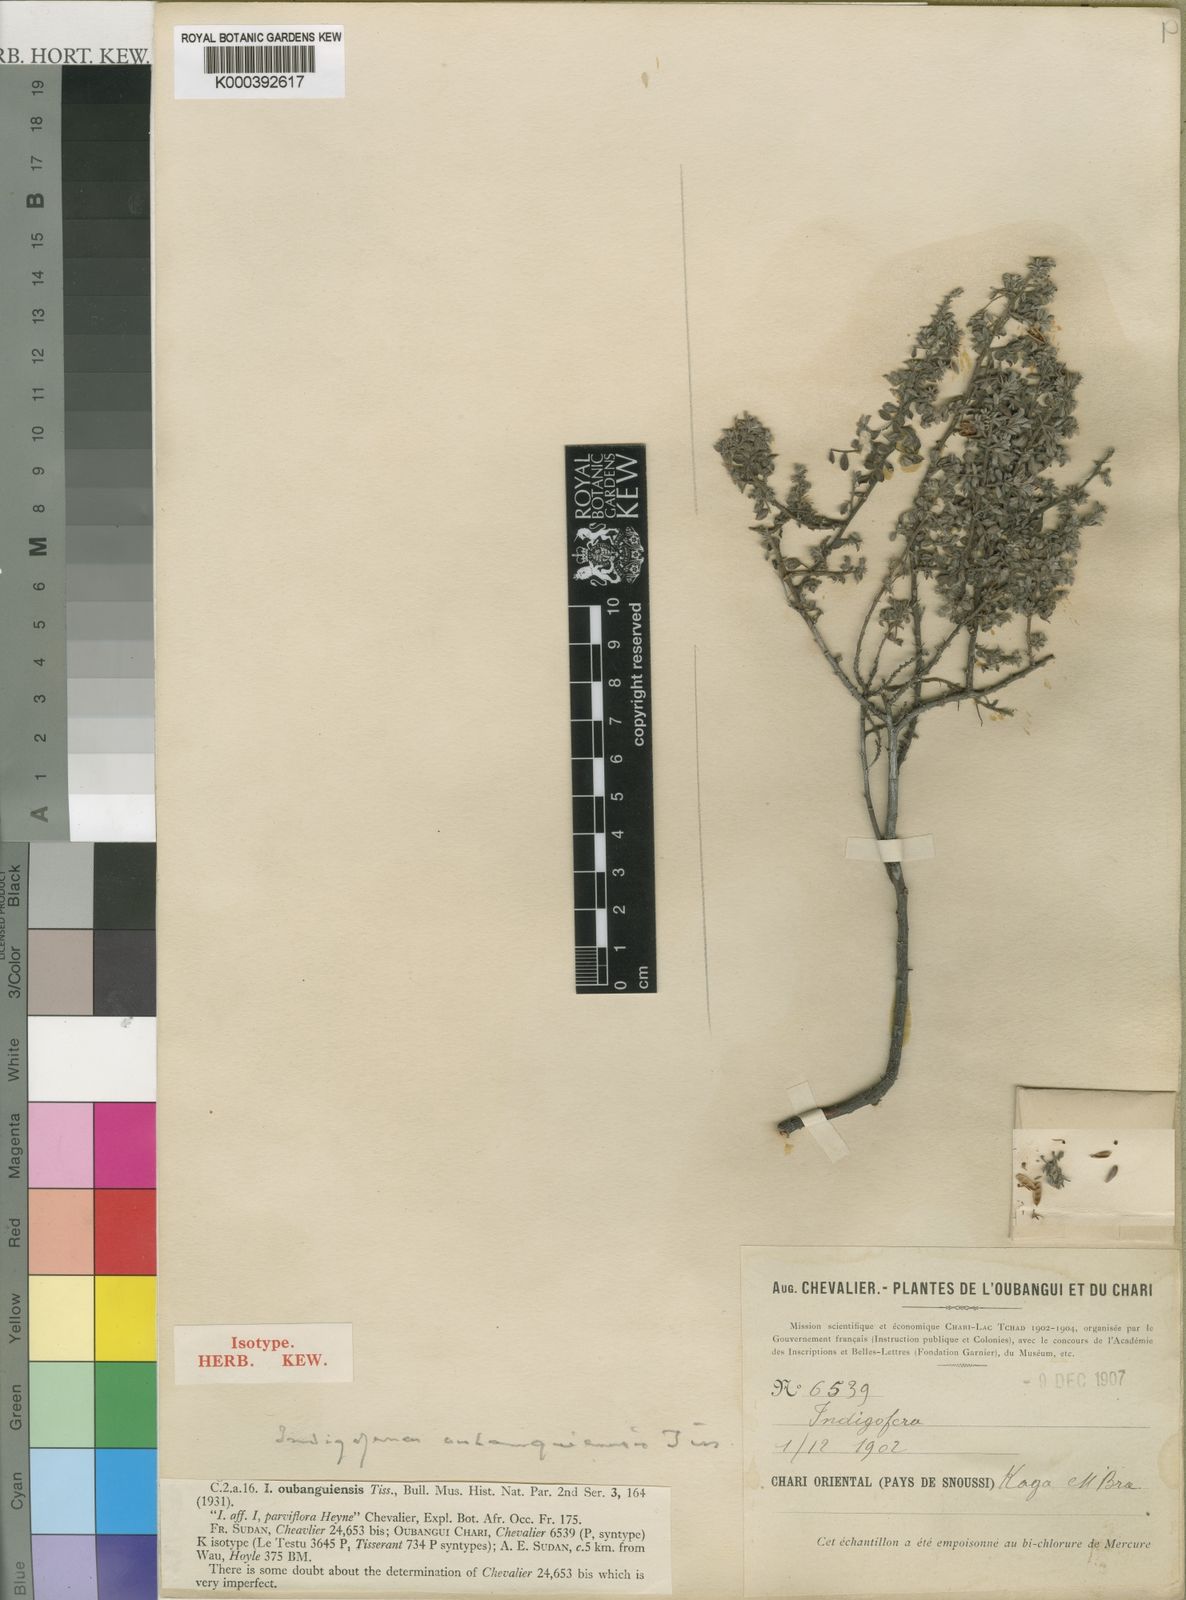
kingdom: Plantae
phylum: Tracheophyta
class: Magnoliopsida
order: Fabales
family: Fabaceae
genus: Indigofera
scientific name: Indigofera oubanguiensis
